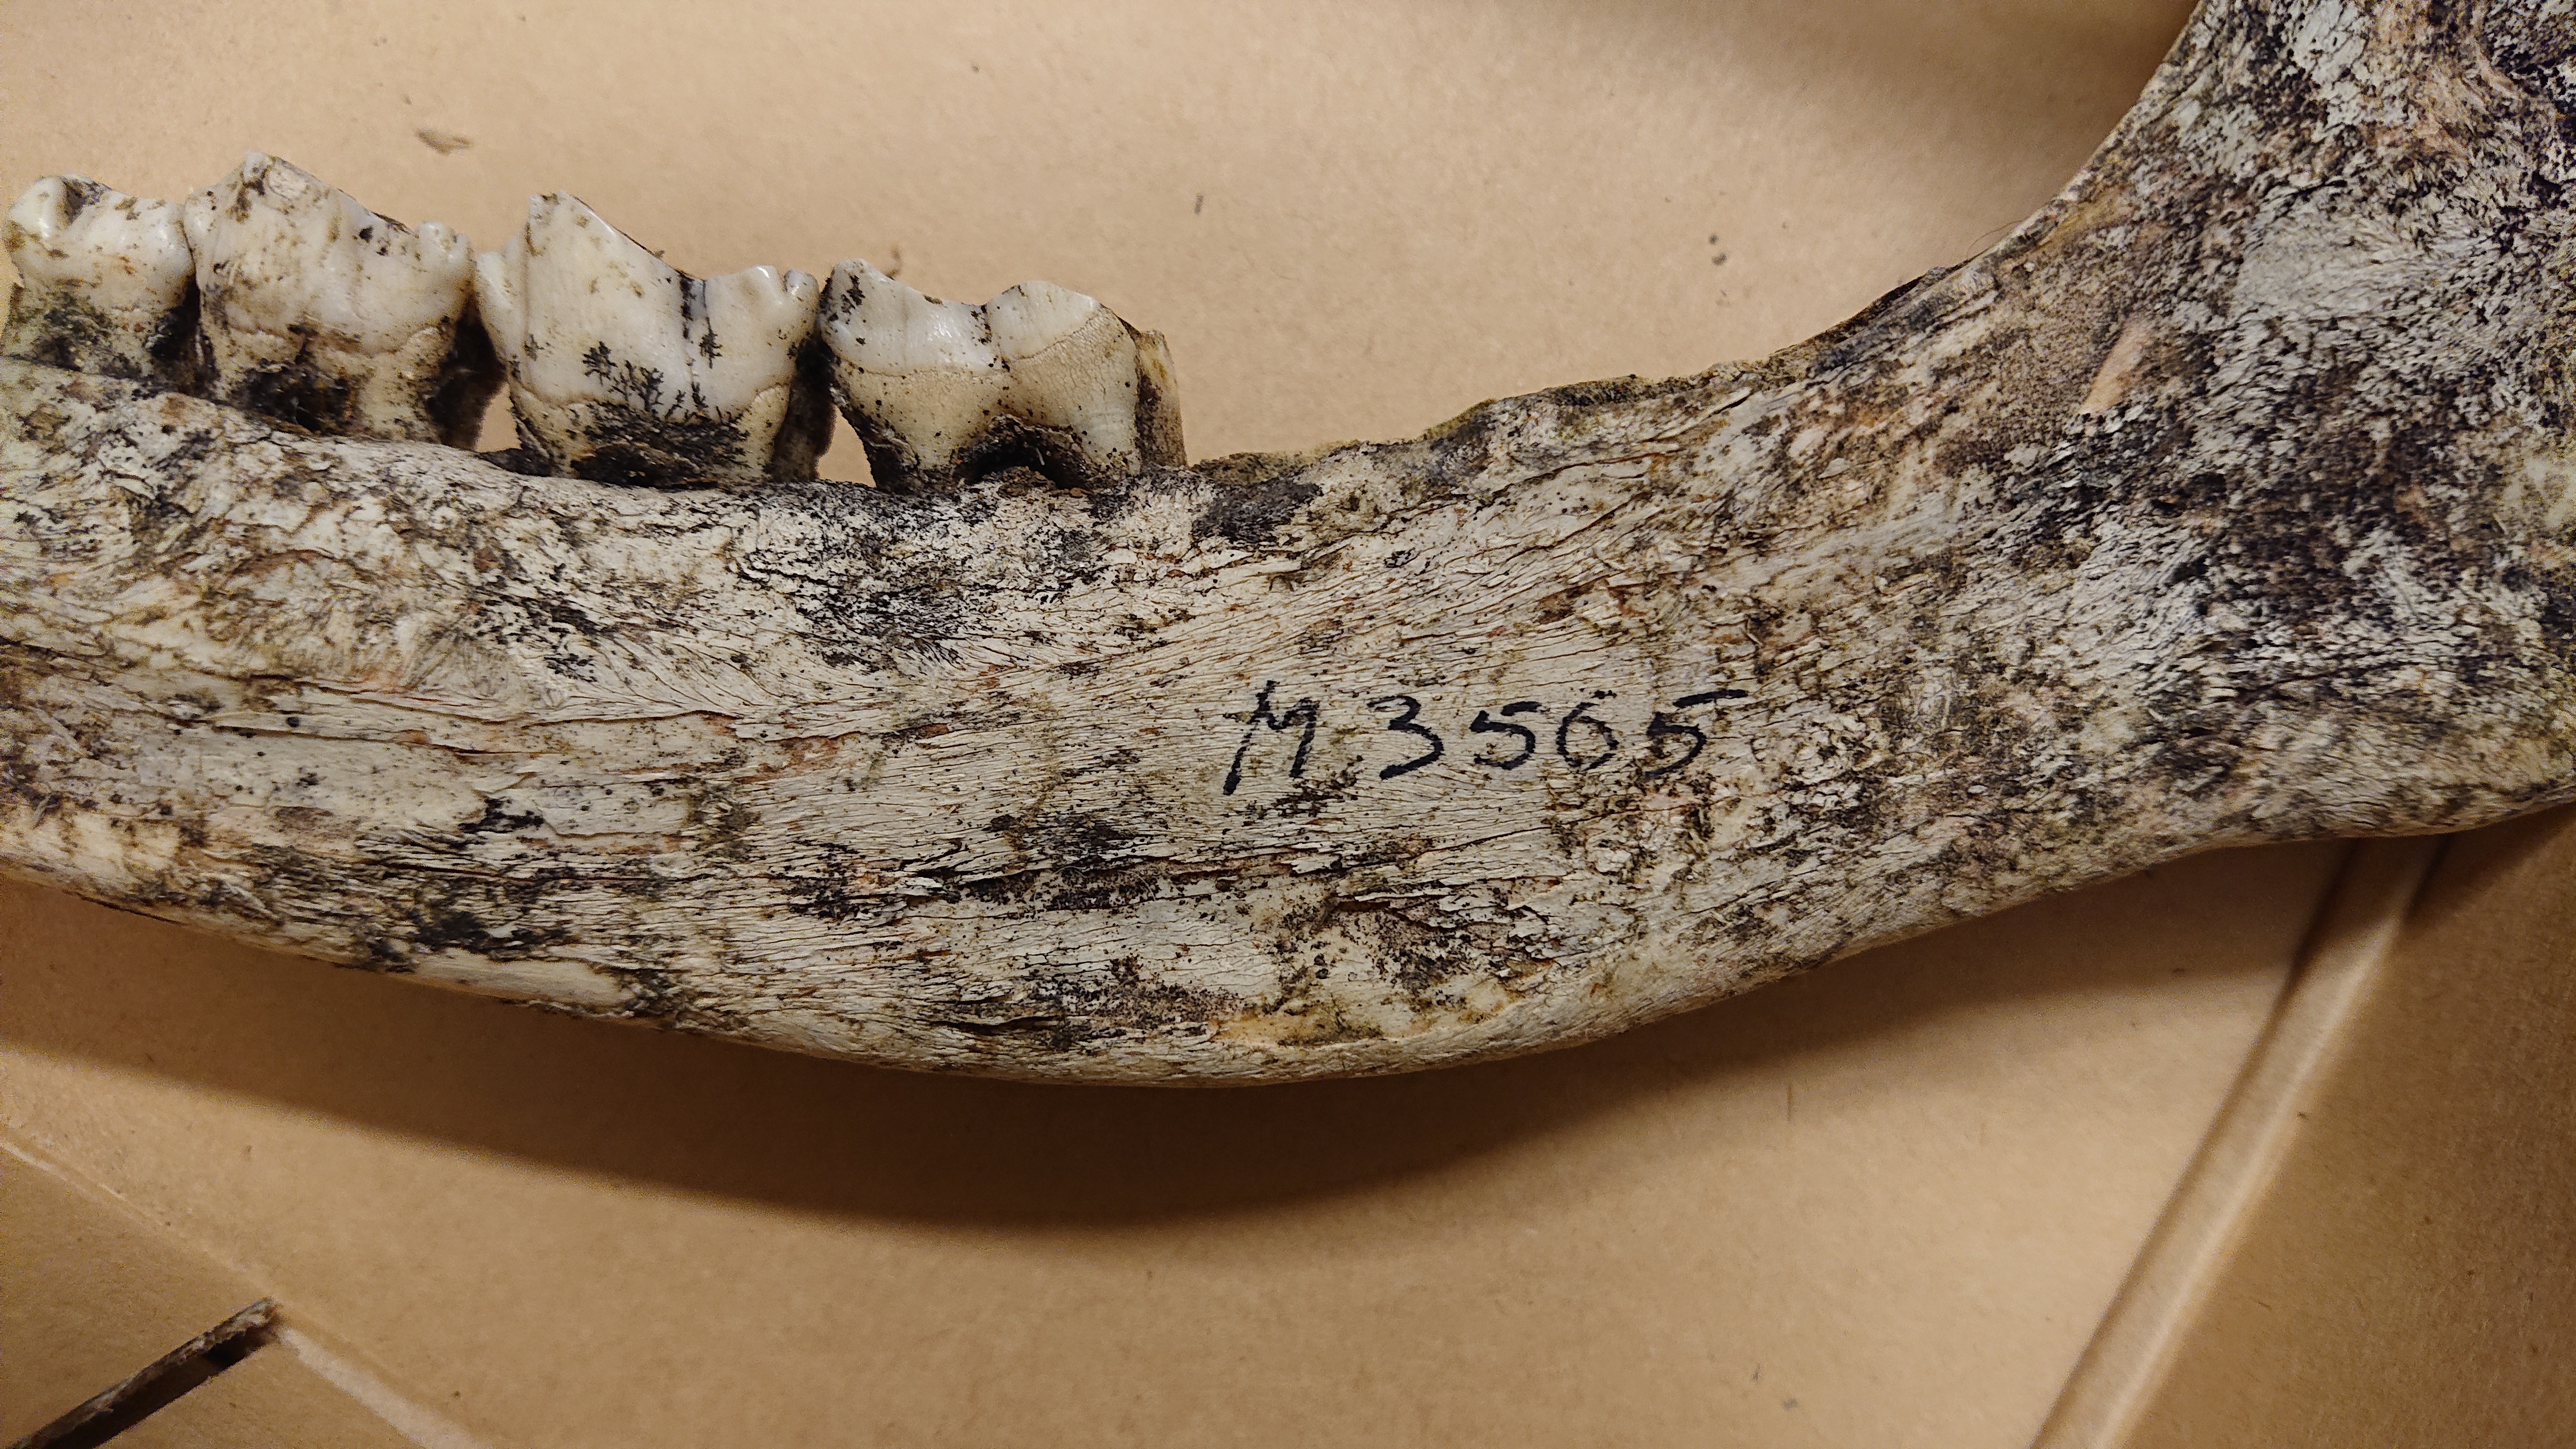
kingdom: Animalia
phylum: Chordata
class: Mammalia
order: Artiodactyla
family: Cervidae
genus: Rangifer
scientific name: Rangifer tarandus
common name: Reindeer
